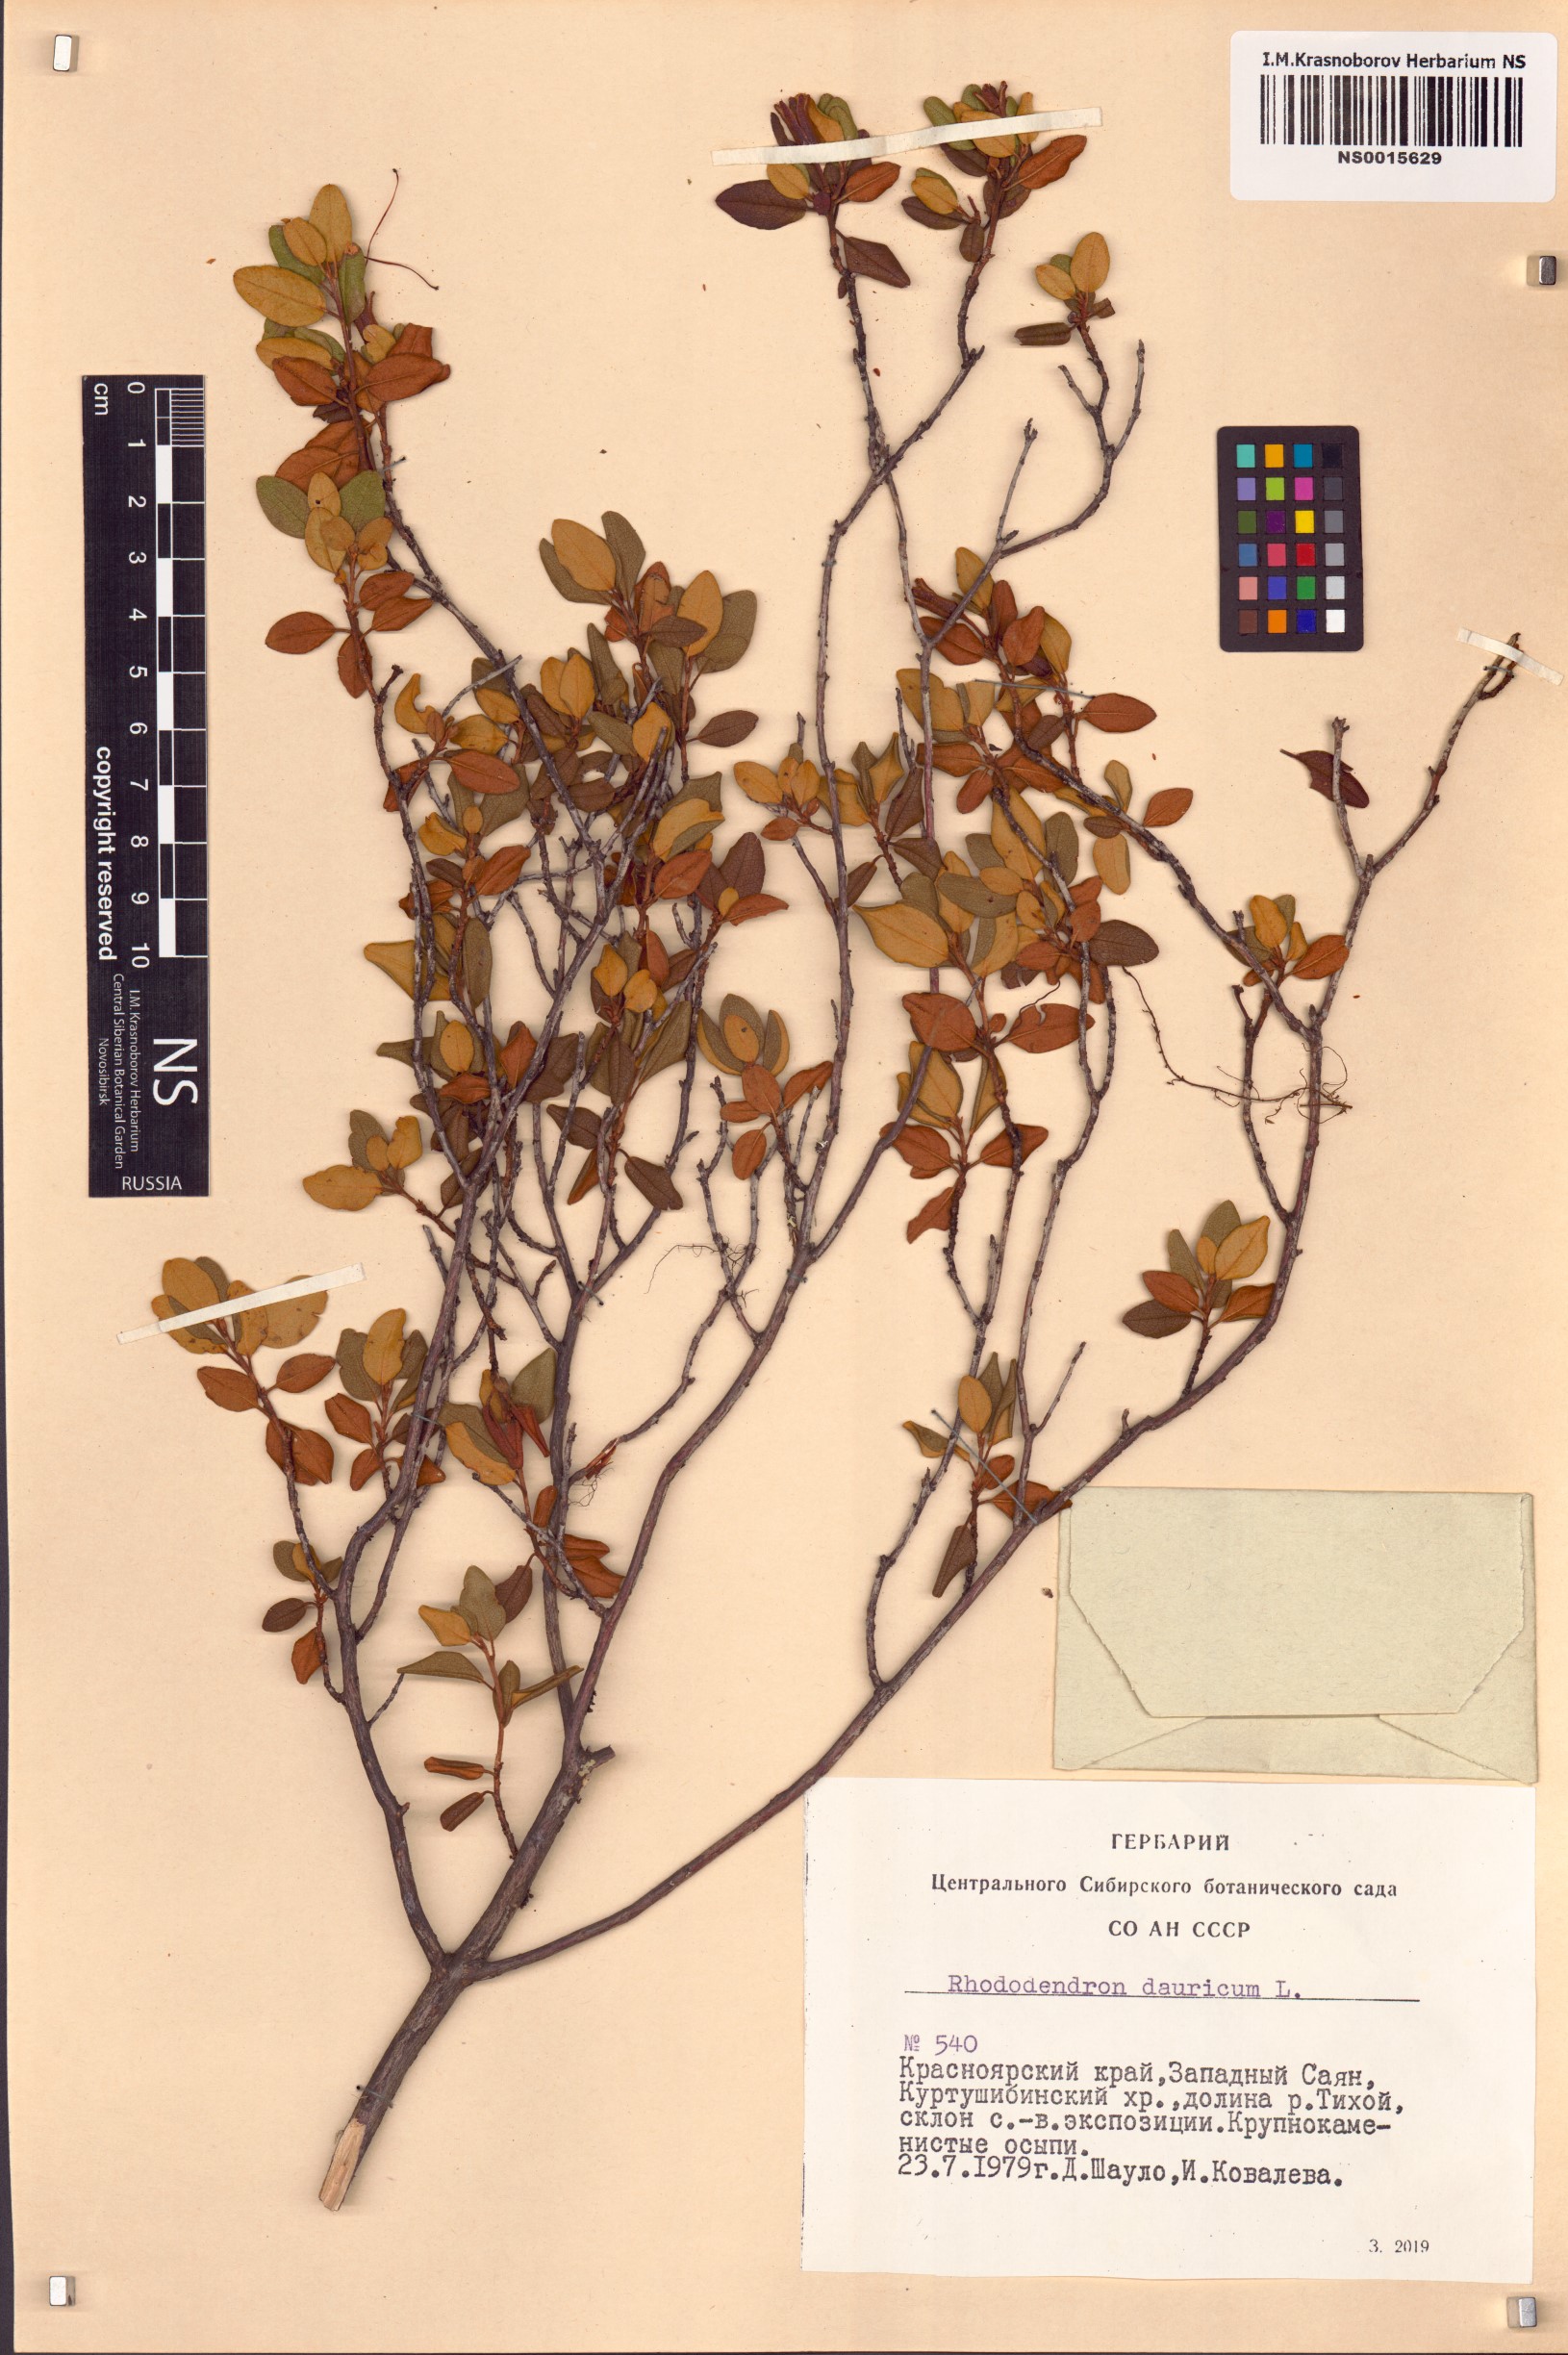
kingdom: Plantae
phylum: Tracheophyta
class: Magnoliopsida
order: Ericales
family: Ericaceae
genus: Rhododendron
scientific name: Rhododendron dauricum
